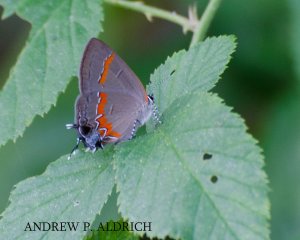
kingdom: Animalia
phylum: Arthropoda
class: Insecta
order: Lepidoptera
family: Lycaenidae
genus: Calycopis
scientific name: Calycopis cecrops
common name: Red-banded Hairstreak
